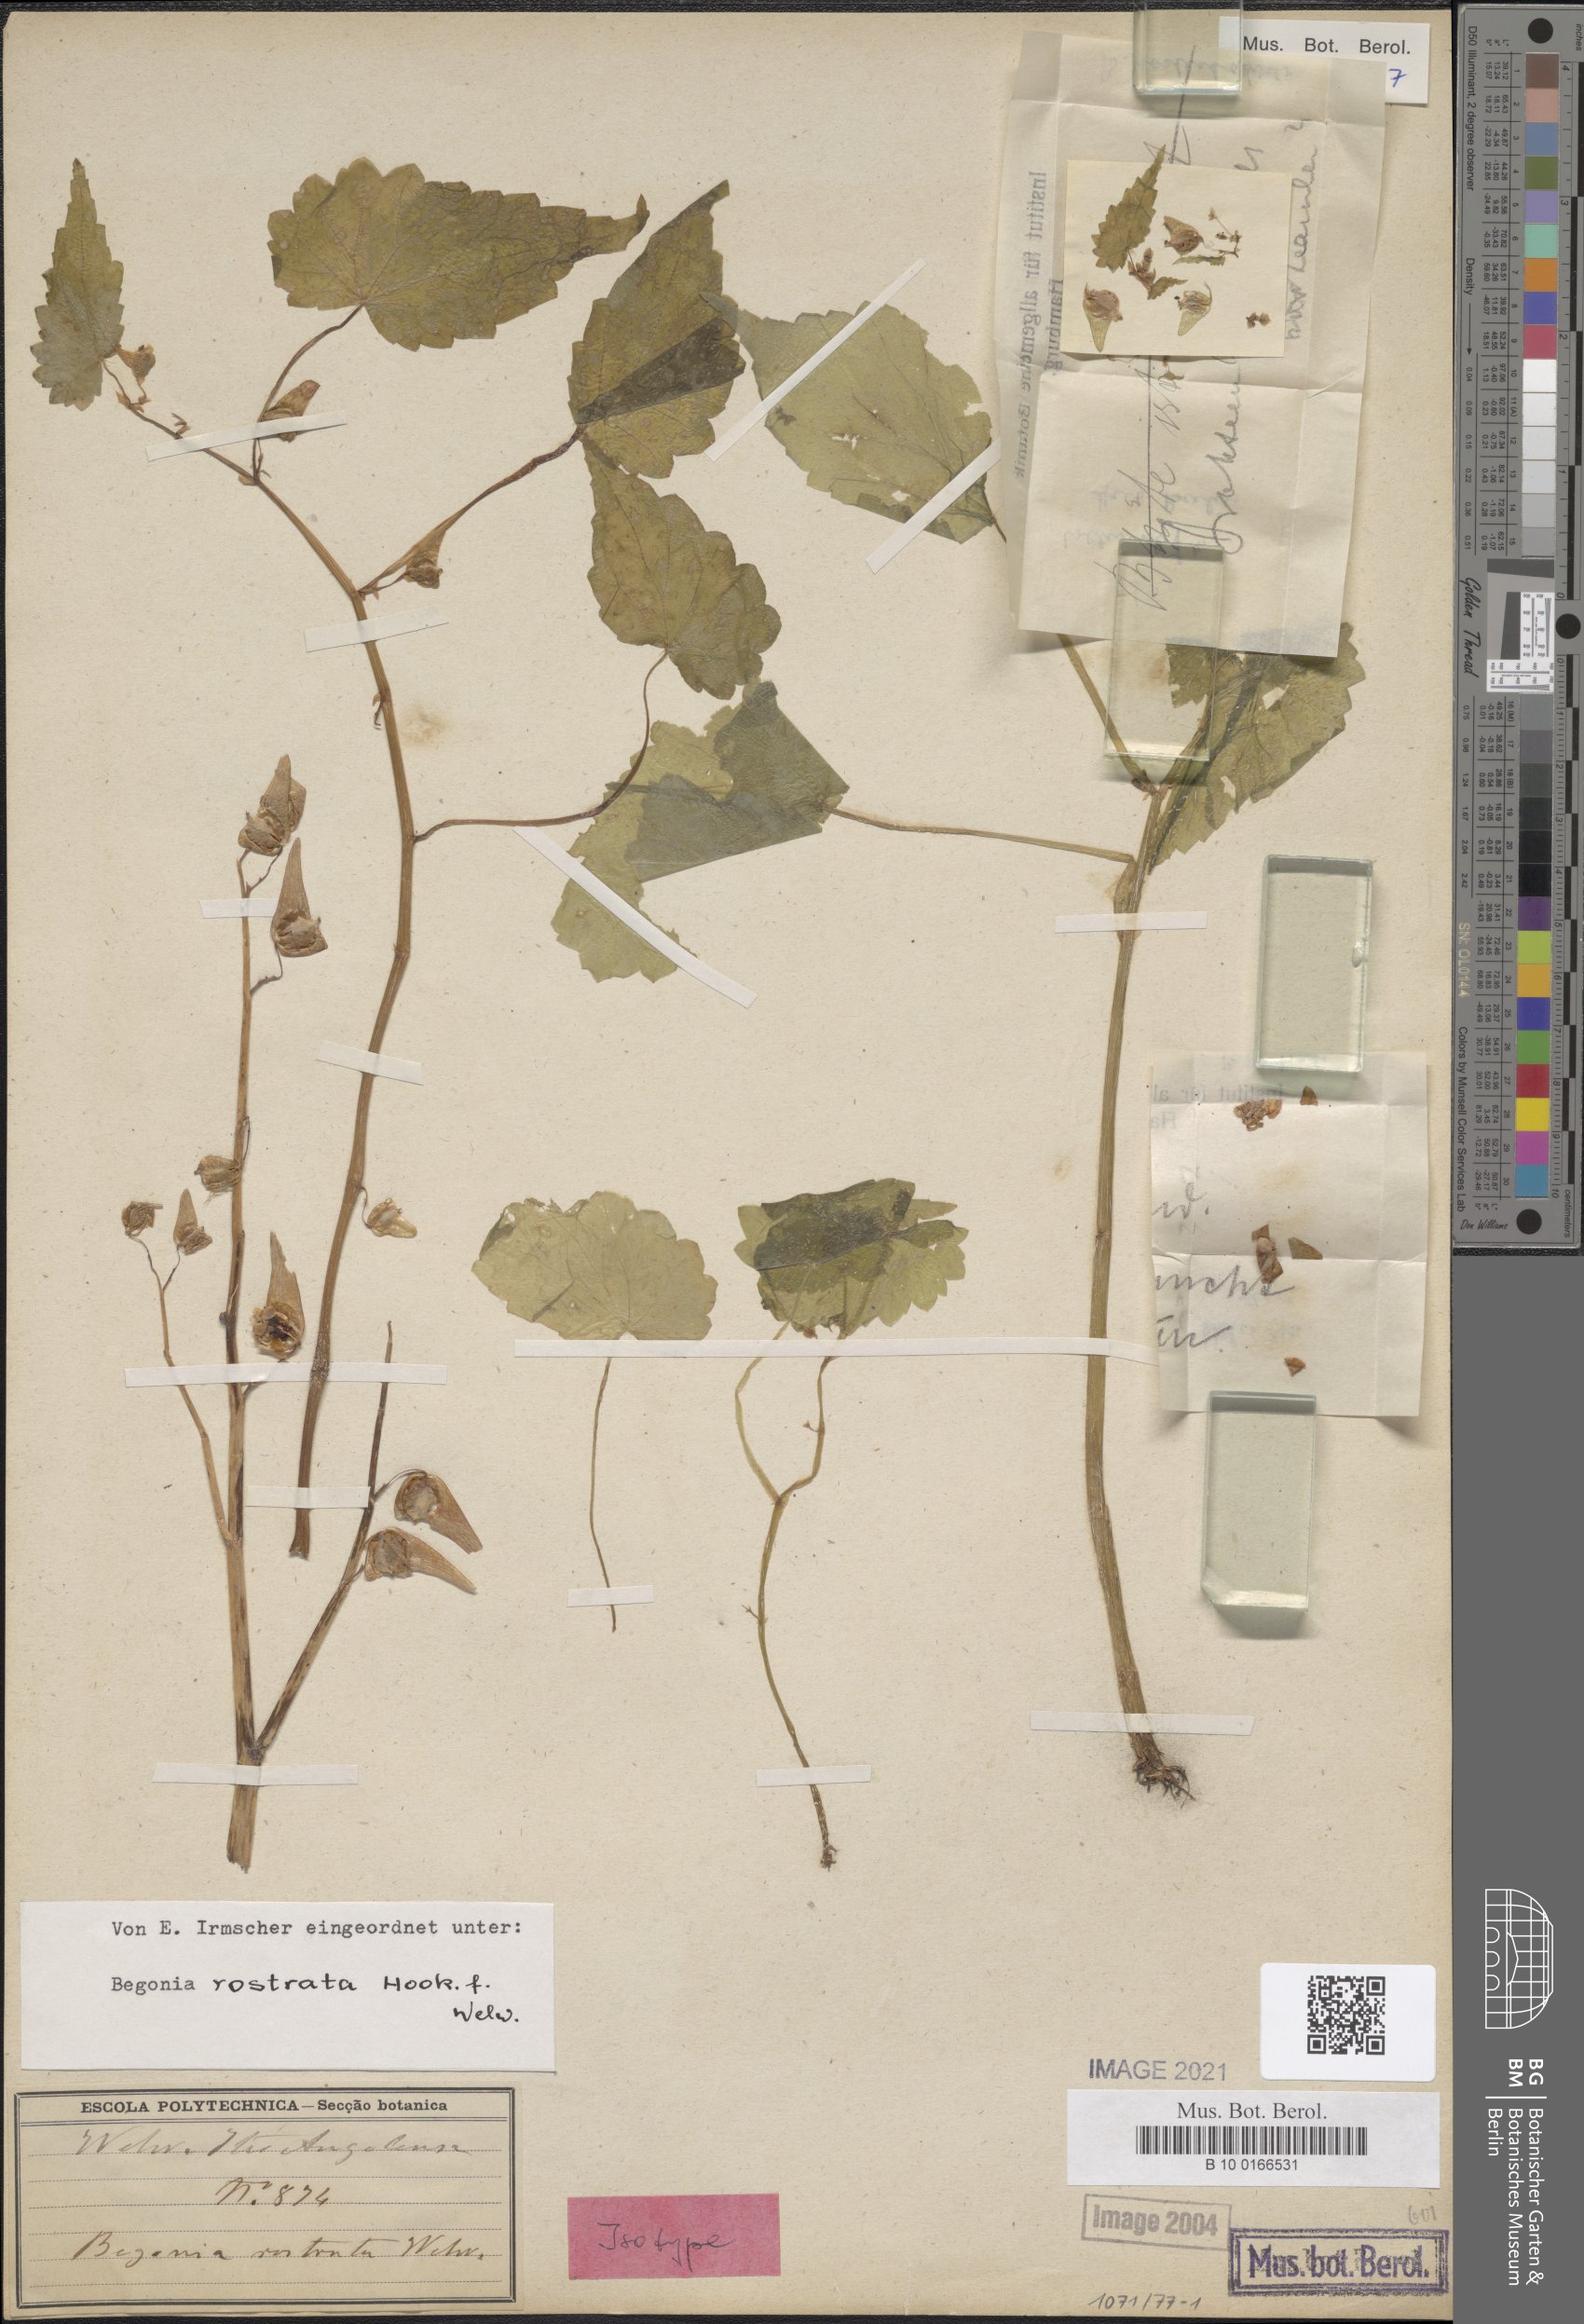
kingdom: Plantae
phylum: Tracheophyta
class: Magnoliopsida
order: Cucurbitales
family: Begoniaceae
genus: Begonia
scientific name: Begonia rostrata
